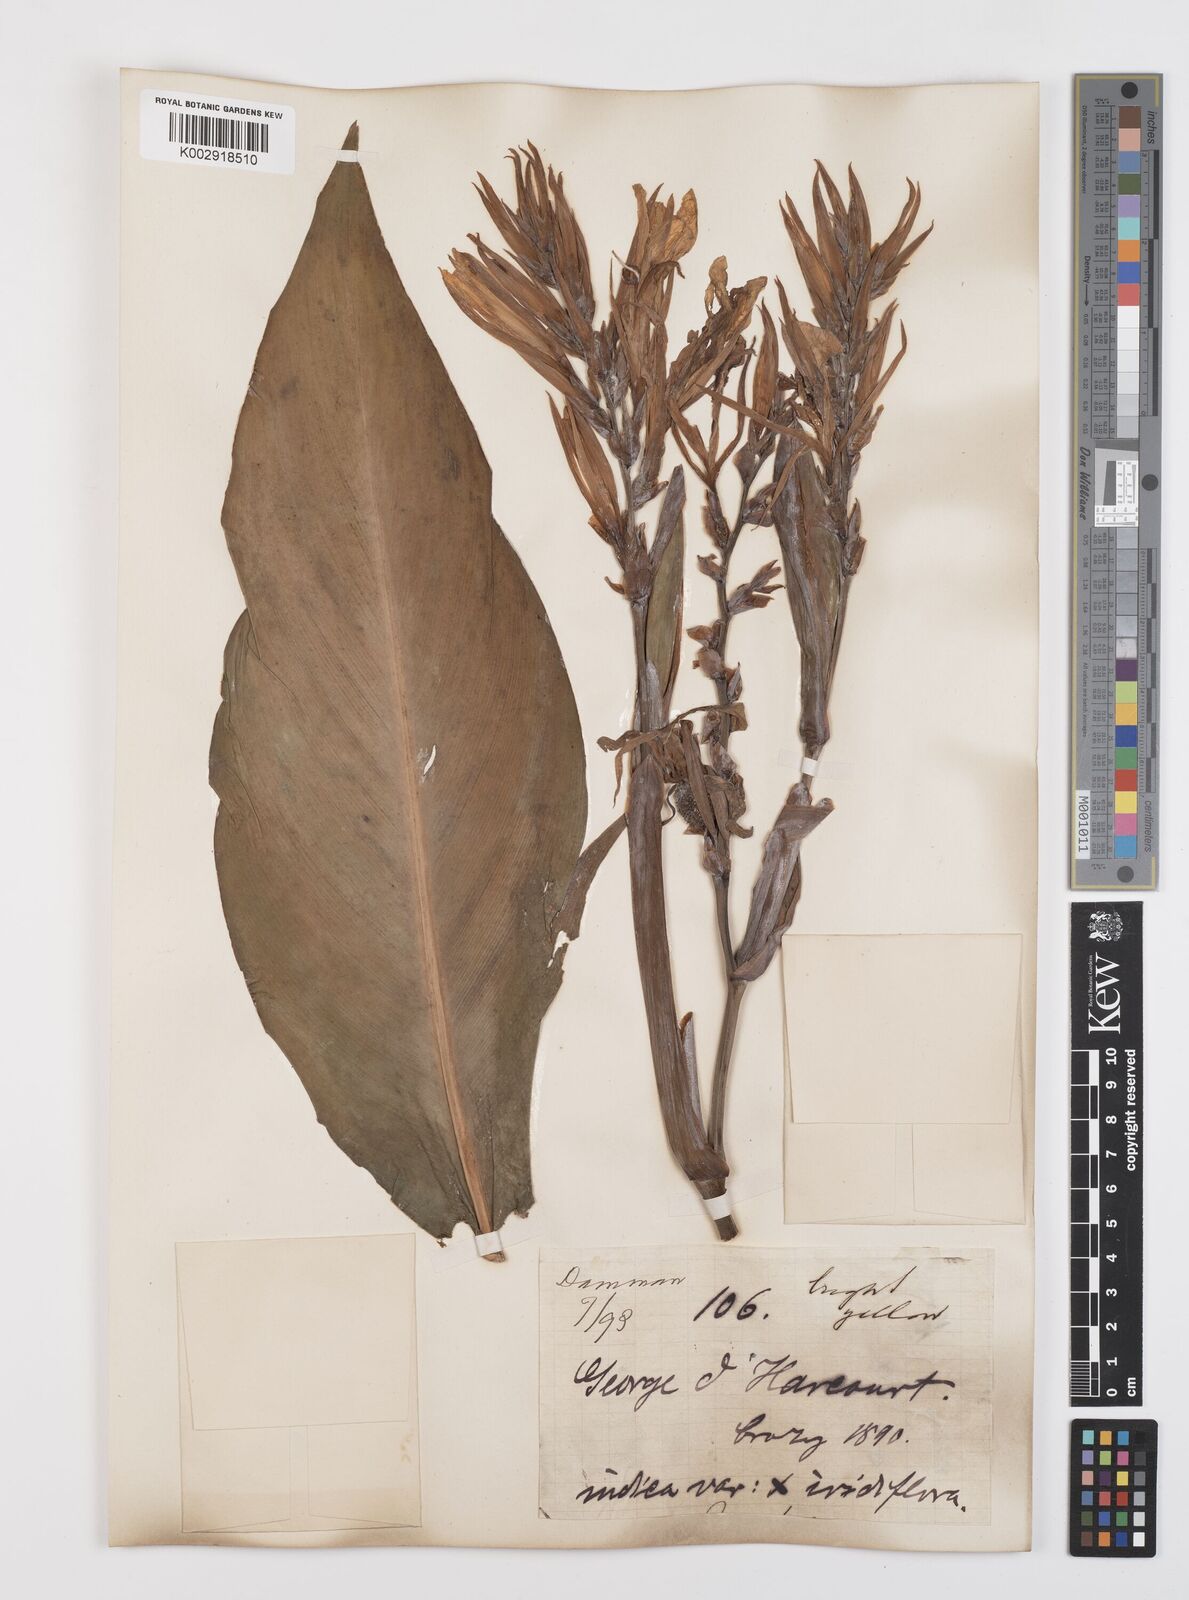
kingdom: Plantae
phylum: Tracheophyta
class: Liliopsida
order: Zingiberales
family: Cannaceae
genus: Canna
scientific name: Canna indica
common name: Indian shot
